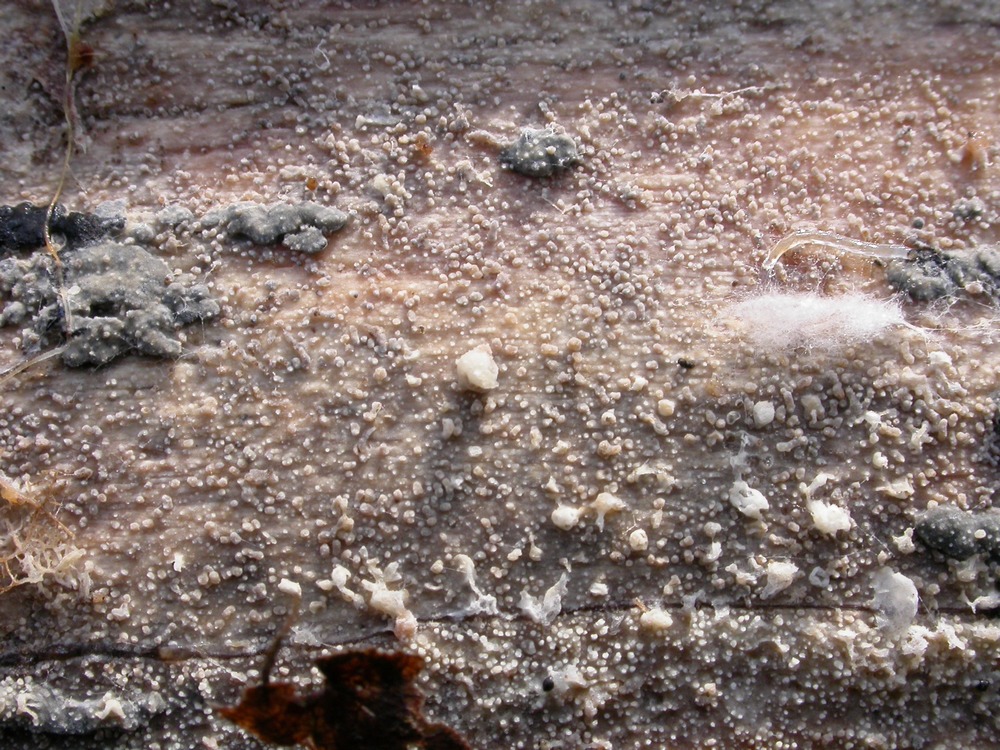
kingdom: Fungi
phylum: Basidiomycota
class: Agaricomycetes
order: Hymenochaetales
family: Rickenellaceae
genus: Resinicium
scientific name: Resinicium bicolor
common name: almindelig vokstand
